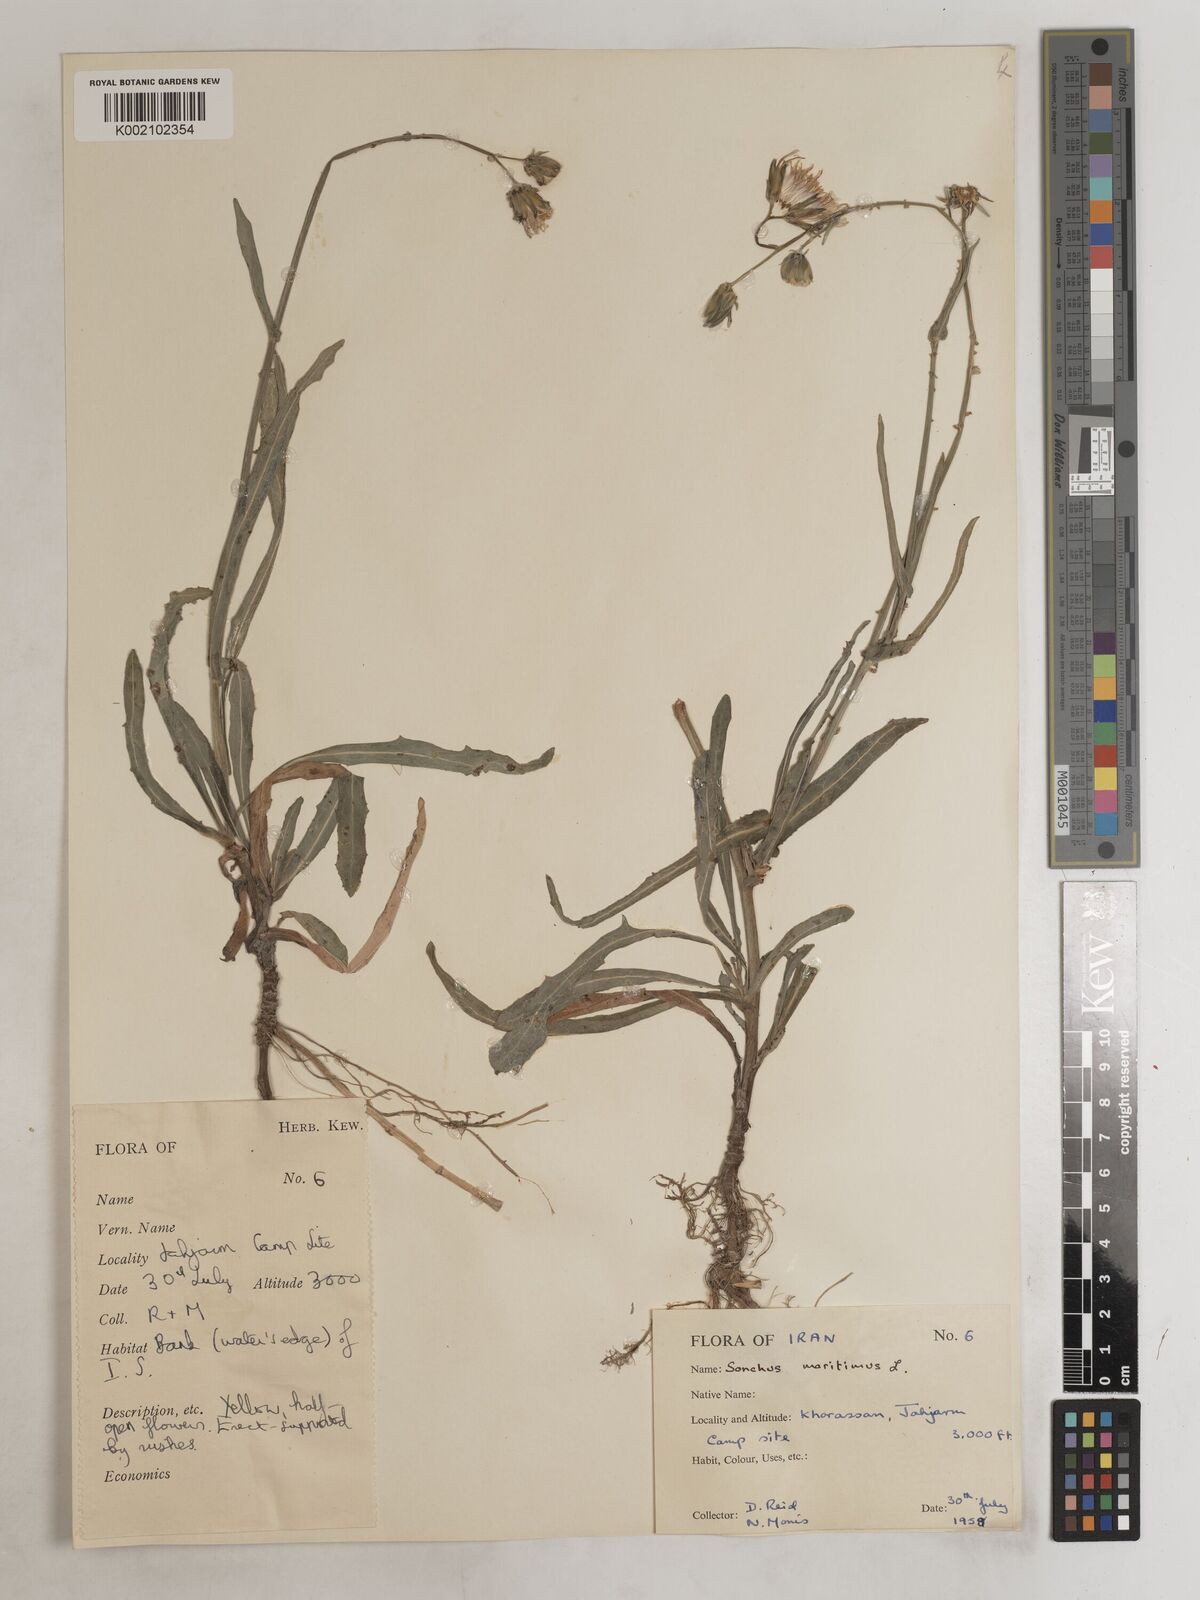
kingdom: Plantae
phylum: Tracheophyta
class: Magnoliopsida
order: Asterales
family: Asteraceae
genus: Sonchus
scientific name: Sonchus maritimus
